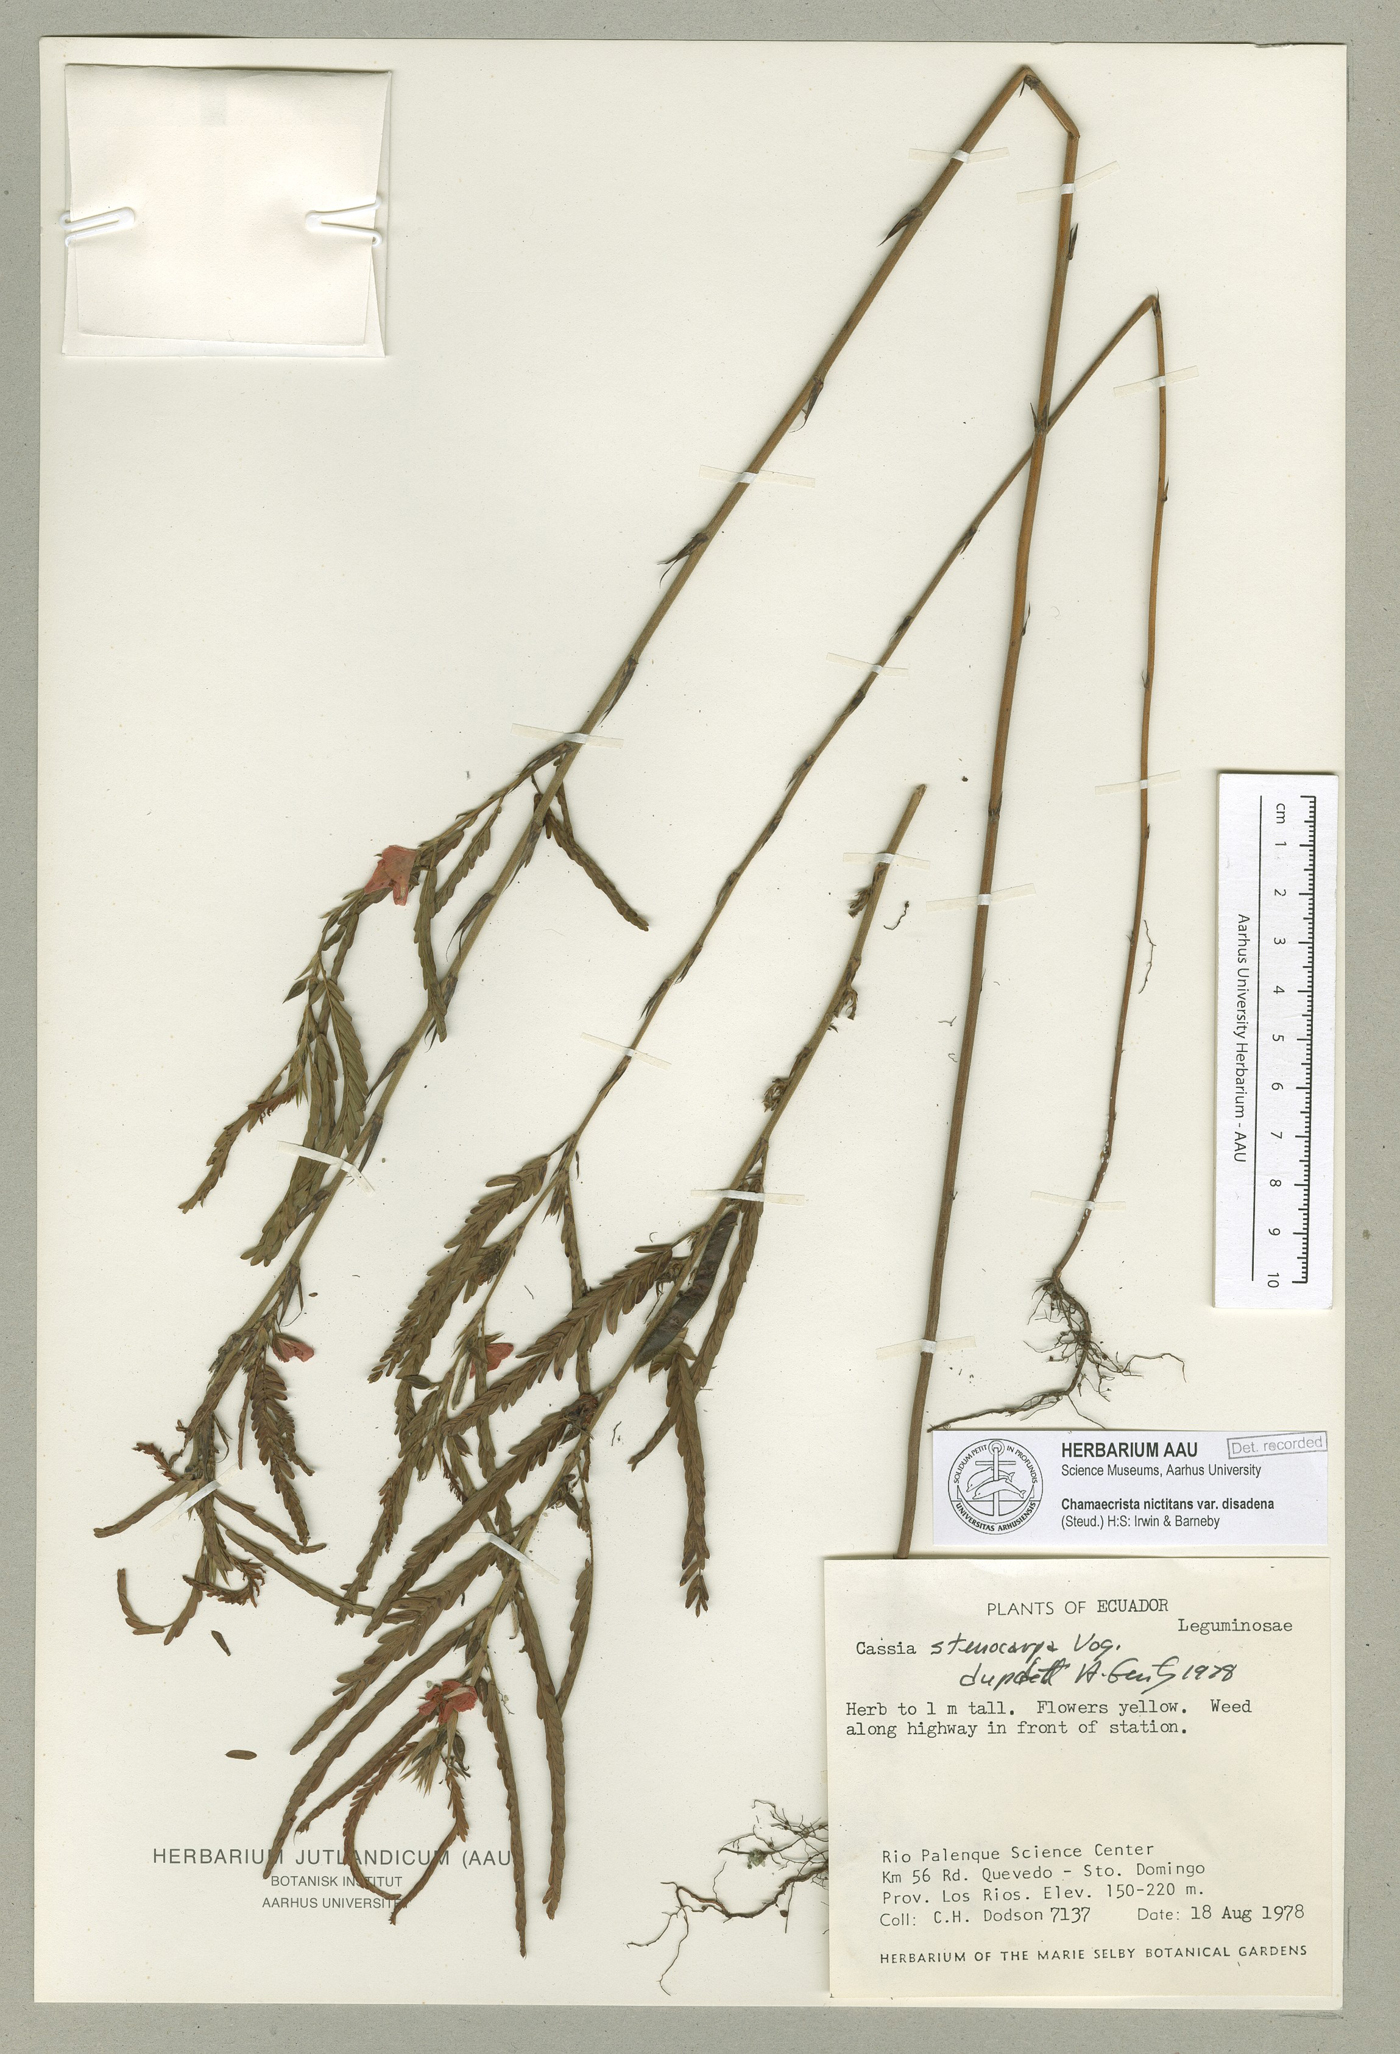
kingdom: Plantae
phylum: Tracheophyta
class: Magnoliopsida
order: Fabales
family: Fabaceae
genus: Chamaecrista
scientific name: Chamaecrista nictitans
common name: Sensitive cassia
